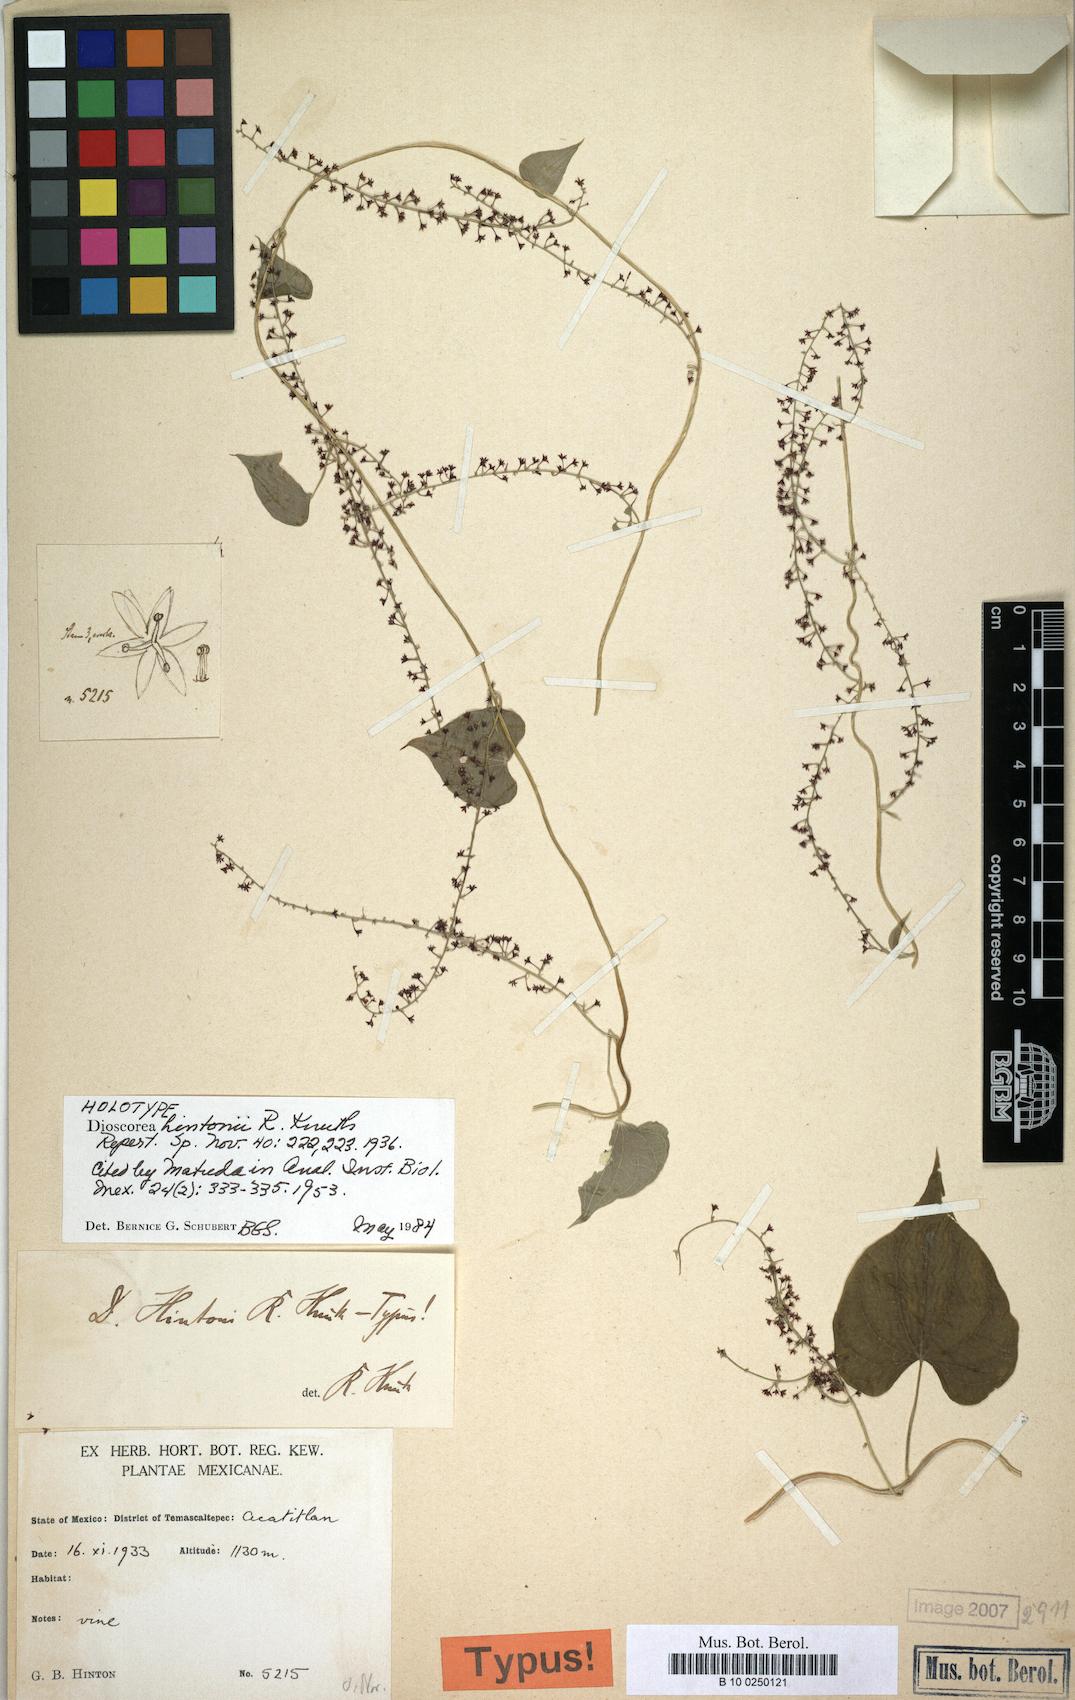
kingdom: Plantae
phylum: Tracheophyta
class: Liliopsida
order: Dioscoreales
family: Dioscoreaceae
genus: Dioscorea
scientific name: Dioscorea hintonii
